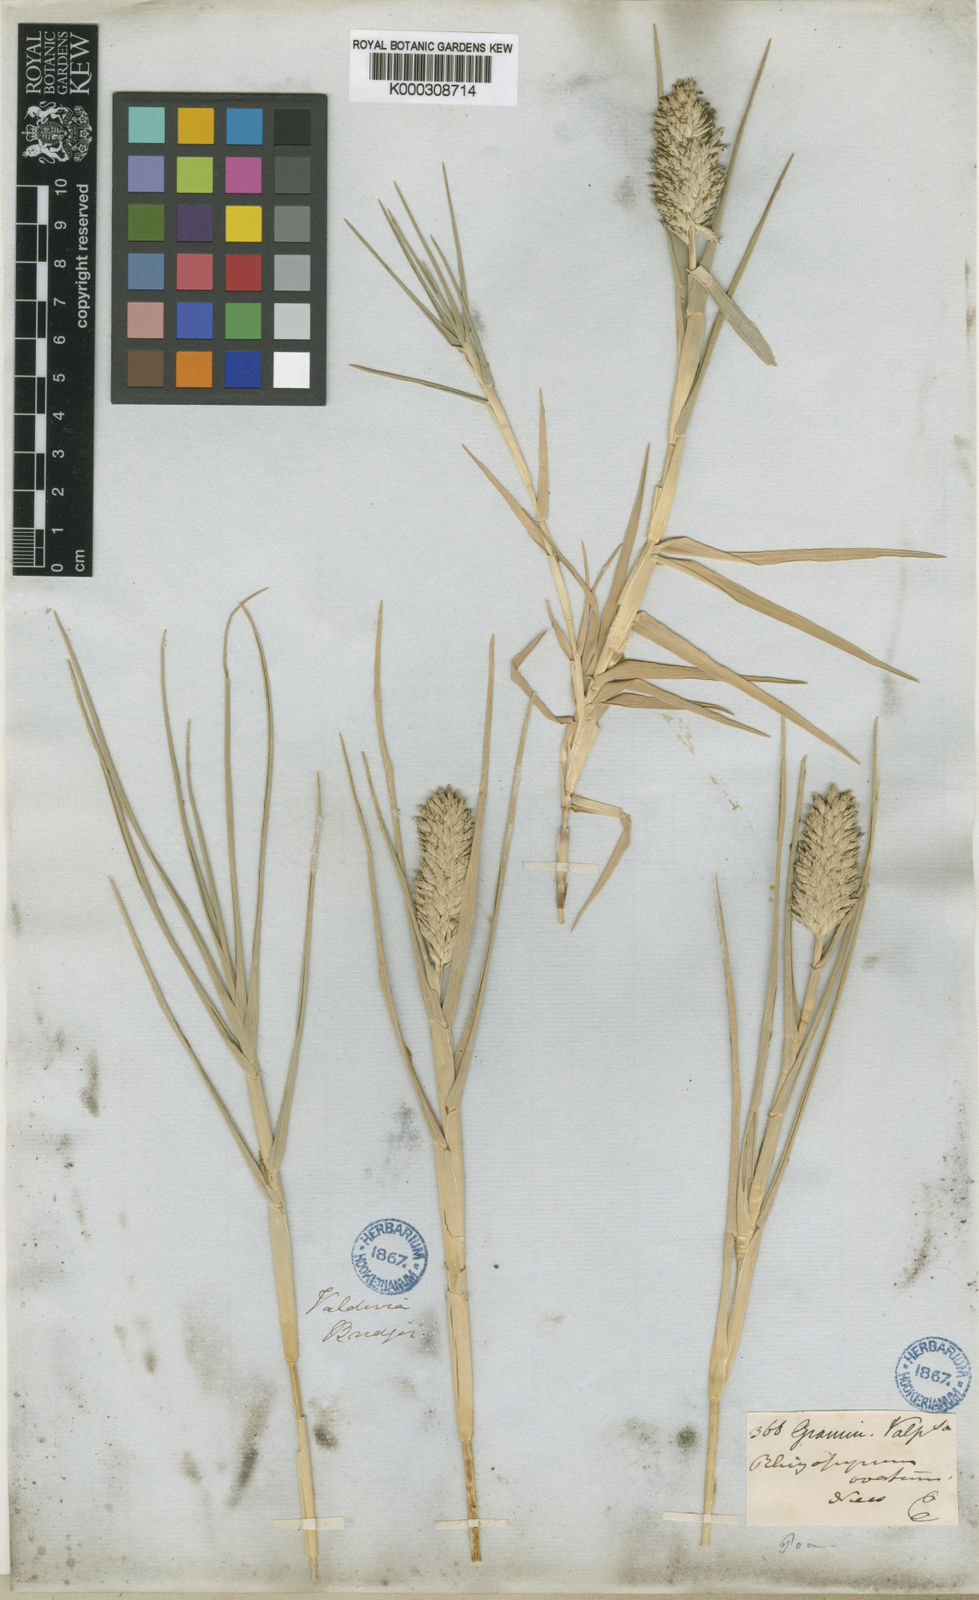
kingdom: Plantae
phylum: Tracheophyta
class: Liliopsida
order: Poales
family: Poaceae
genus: Distichlis
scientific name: Distichlis spicata
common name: Saltgrass
